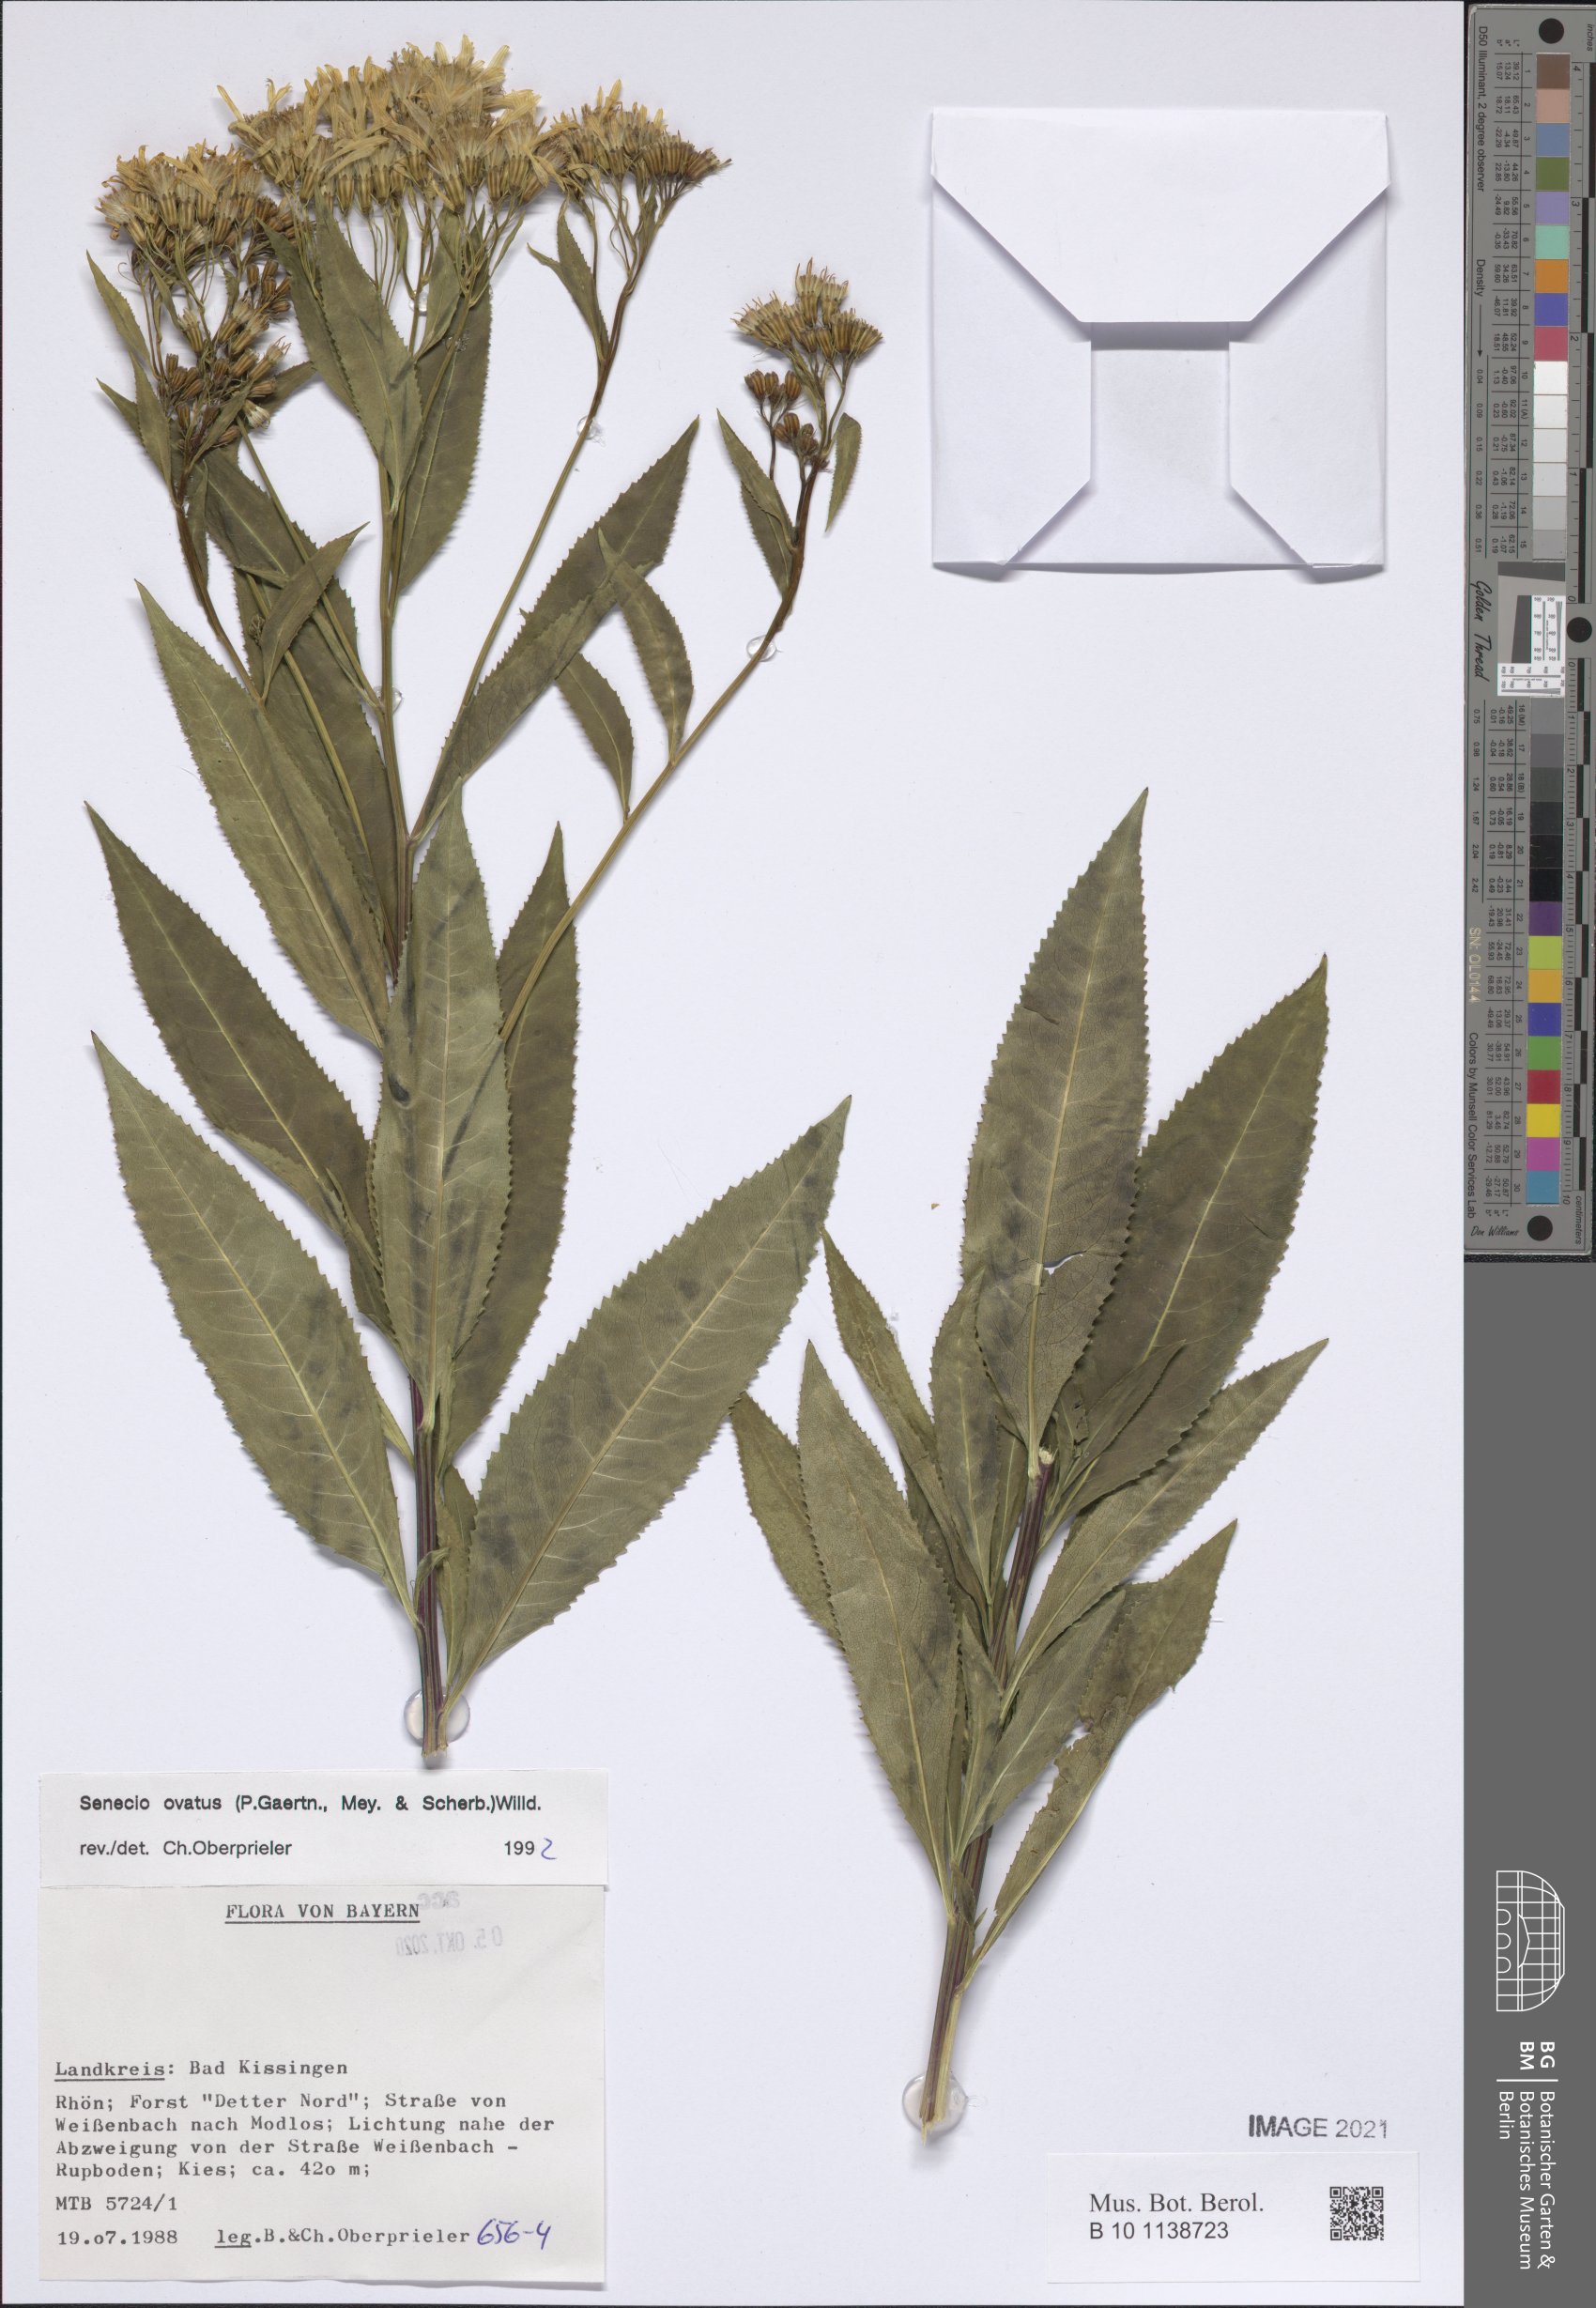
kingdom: Plantae
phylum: Tracheophyta
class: Magnoliopsida
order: Asterales
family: Asteraceae
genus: Senecio
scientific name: Senecio ovatus
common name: Wood ragwort
